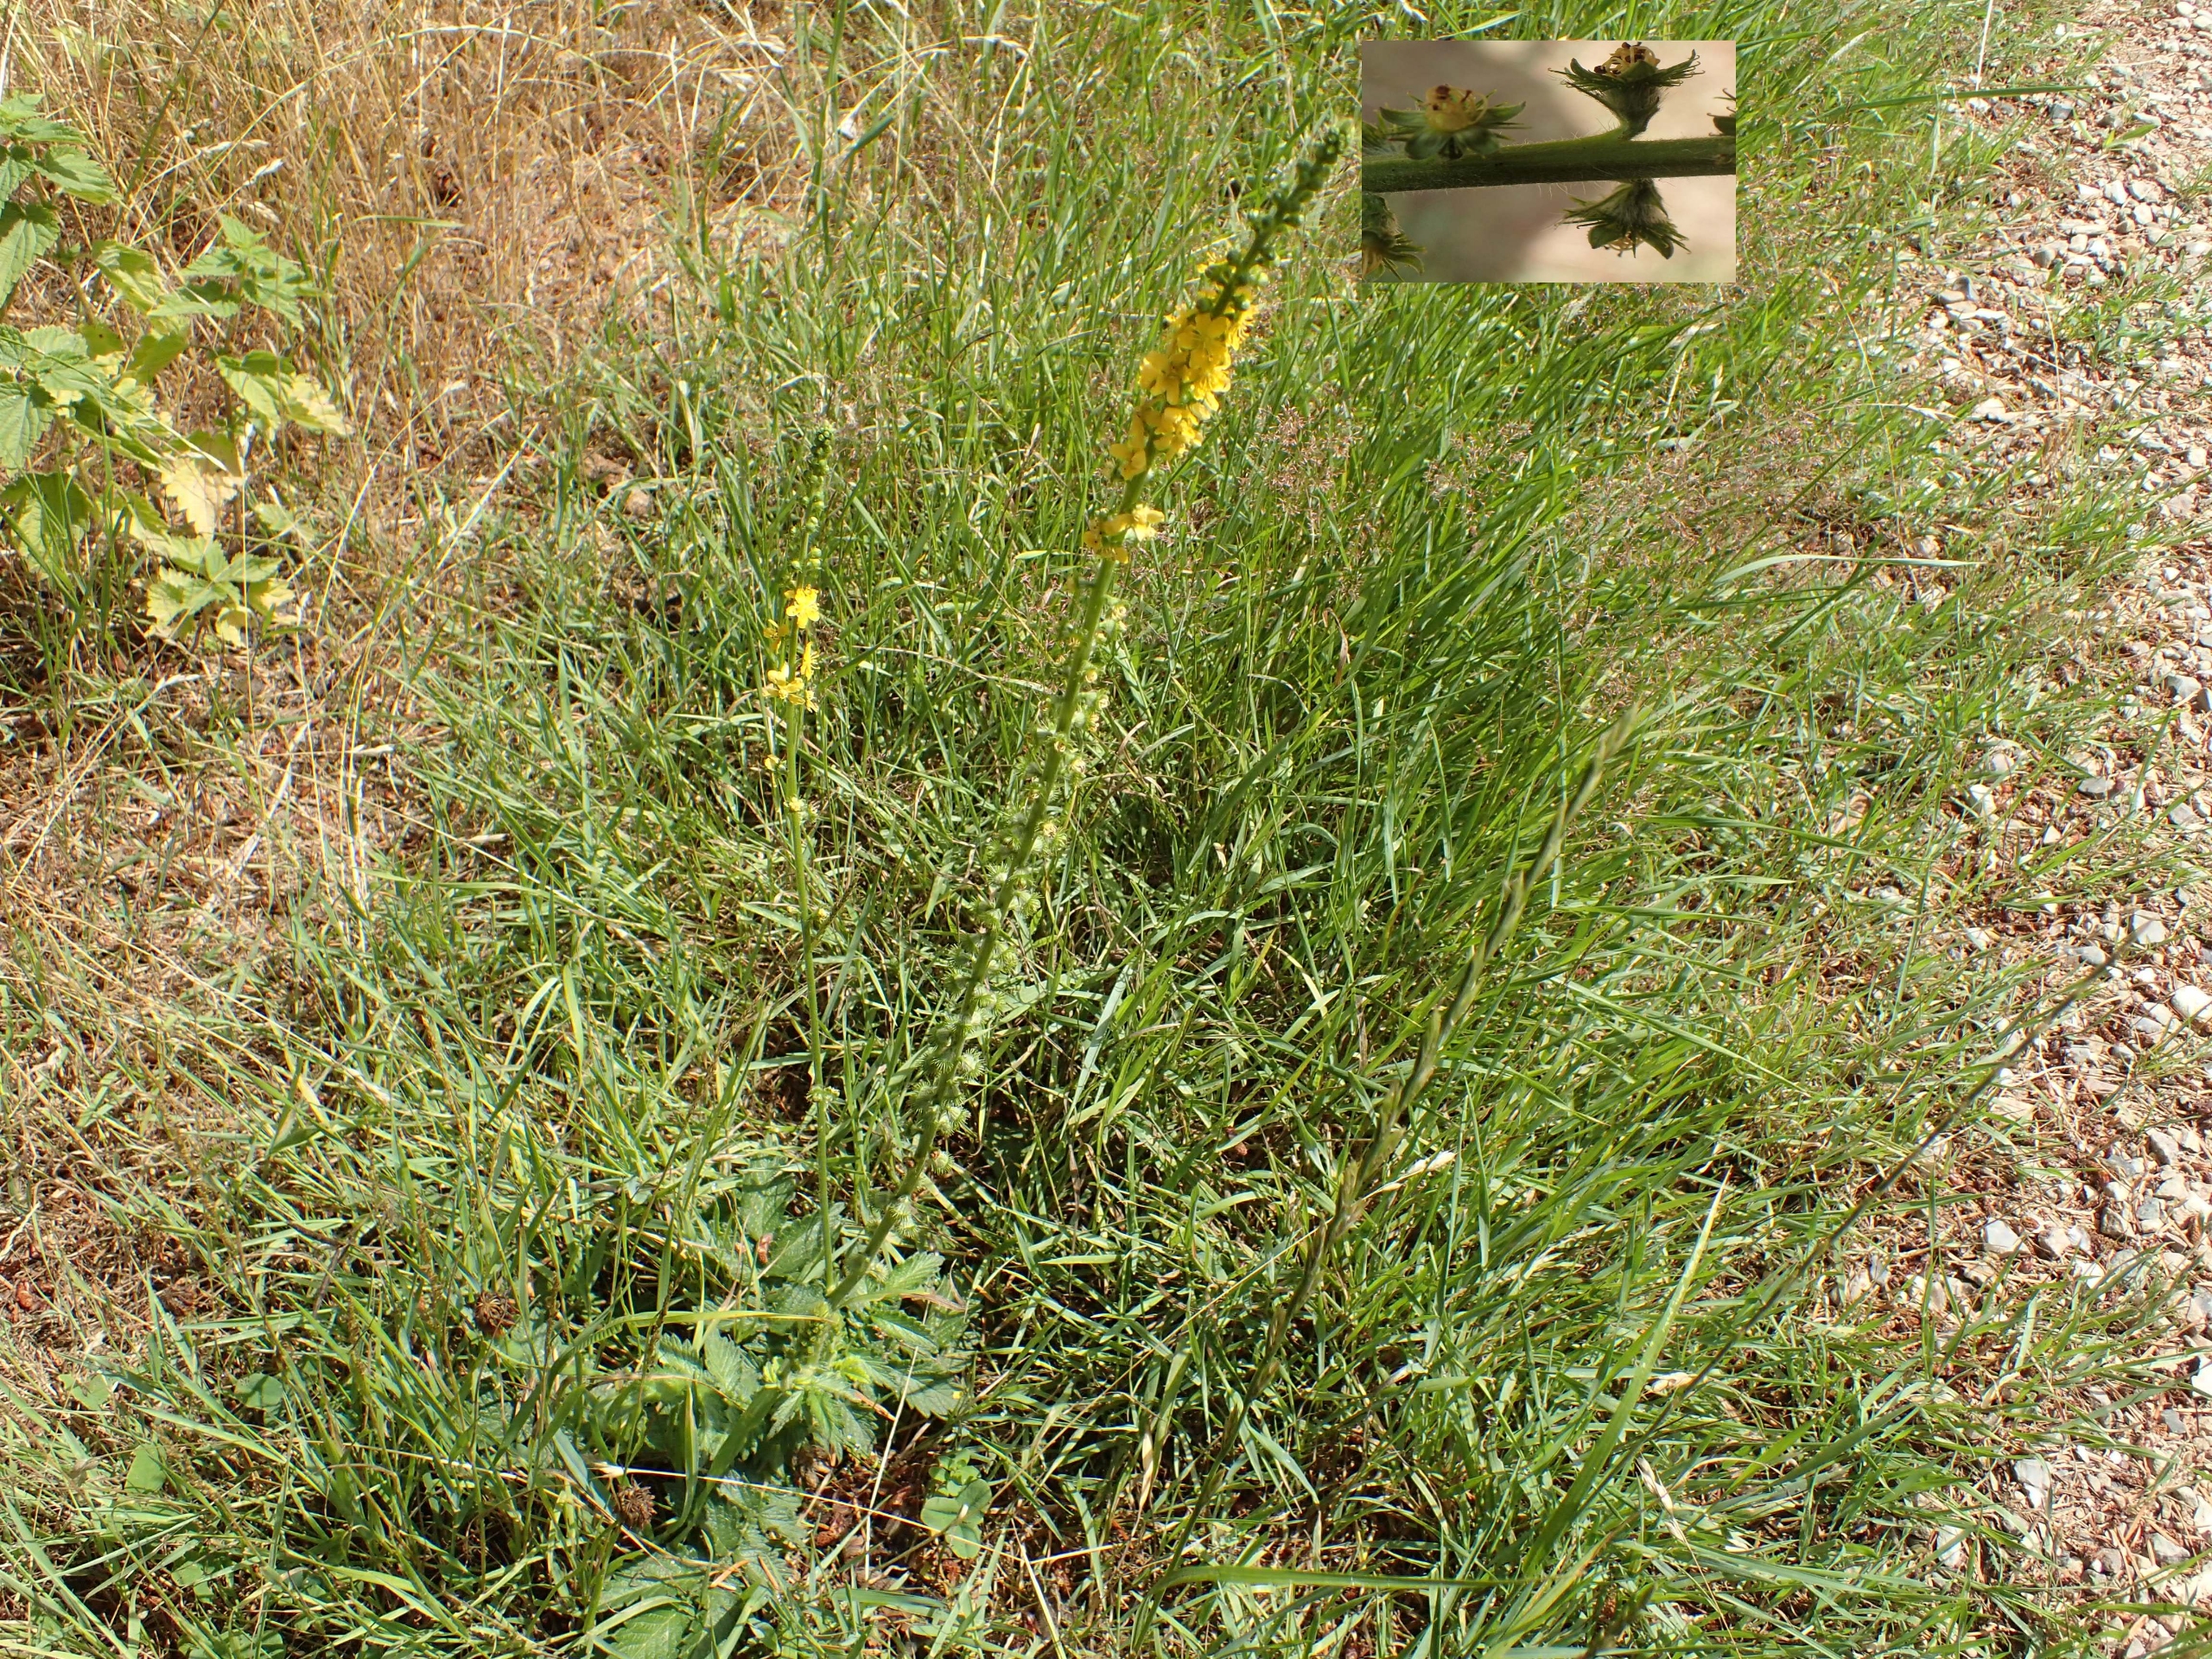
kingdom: Plantae
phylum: Tracheophyta
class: Magnoliopsida
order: Rosales
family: Rosaceae
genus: Agrimonia
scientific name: Agrimonia eupatoria
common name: Almindelig agermåne
